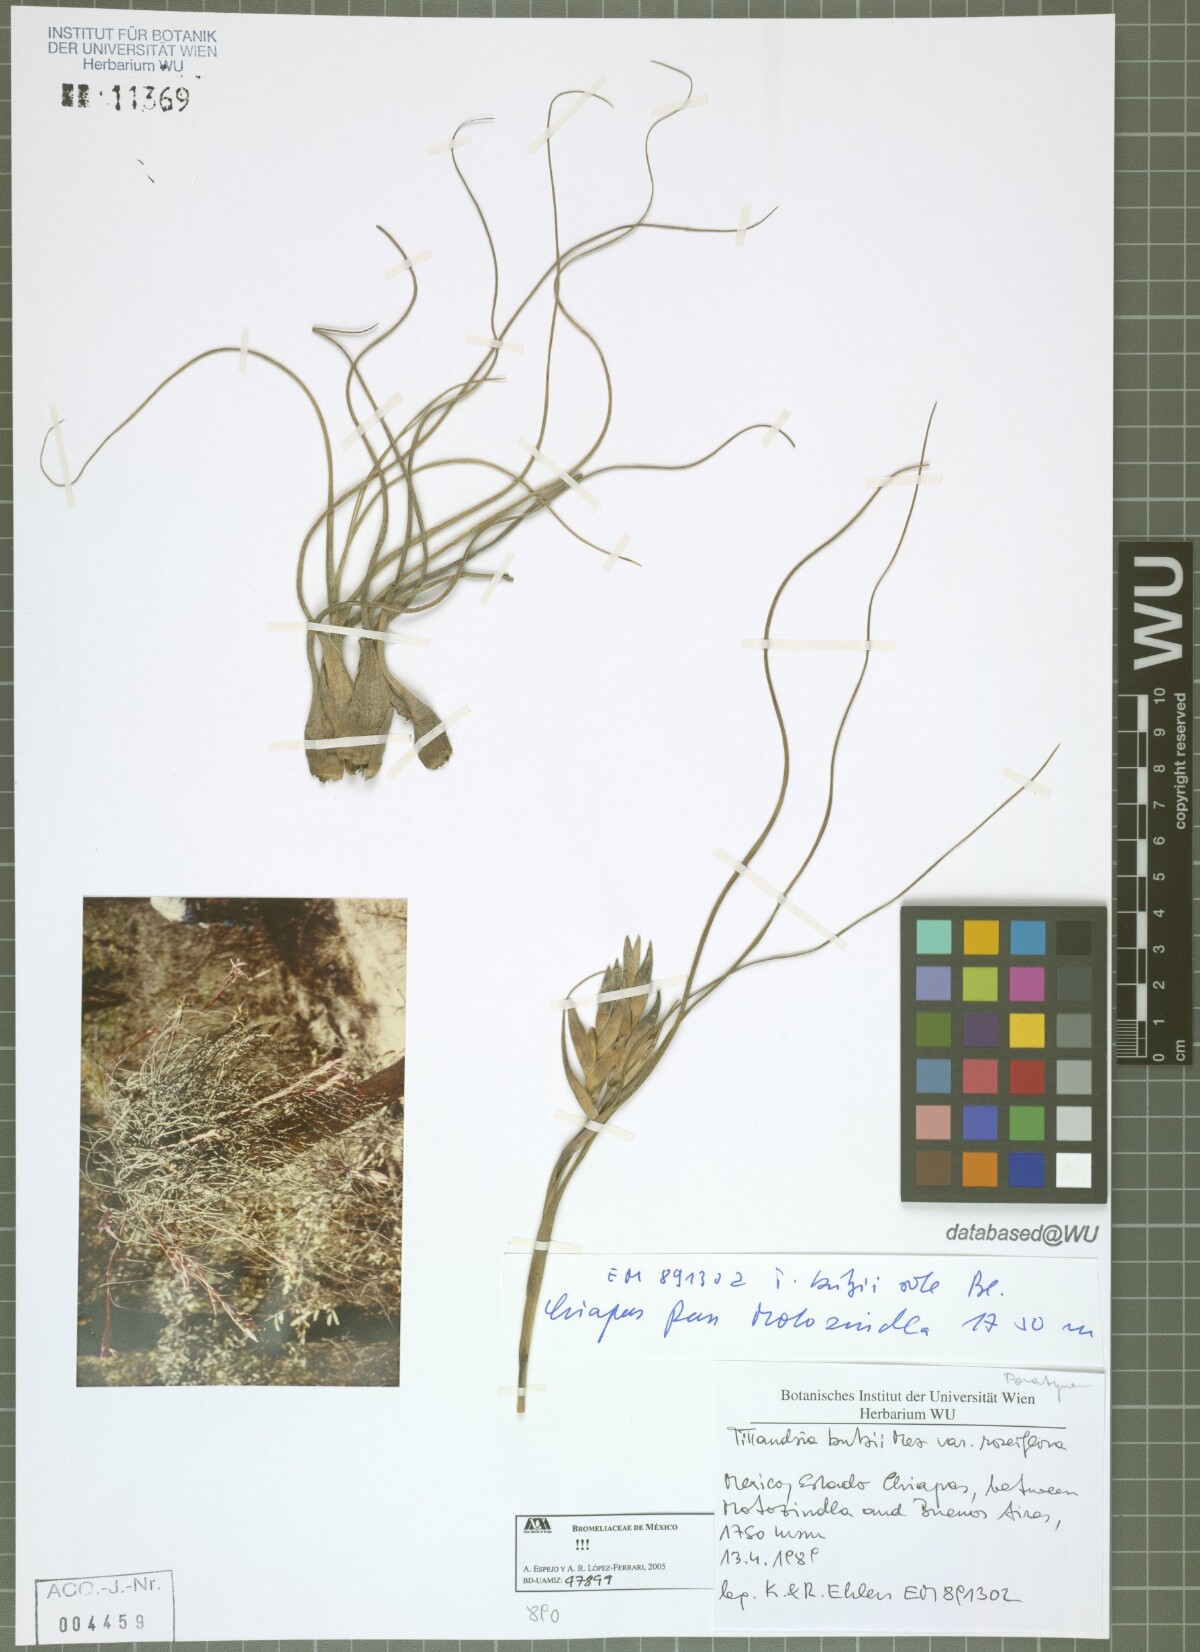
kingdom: Plantae
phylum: Tracheophyta
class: Liliopsida
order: Poales
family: Bromeliaceae
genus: Tillandsia
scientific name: Tillandsia butzii
